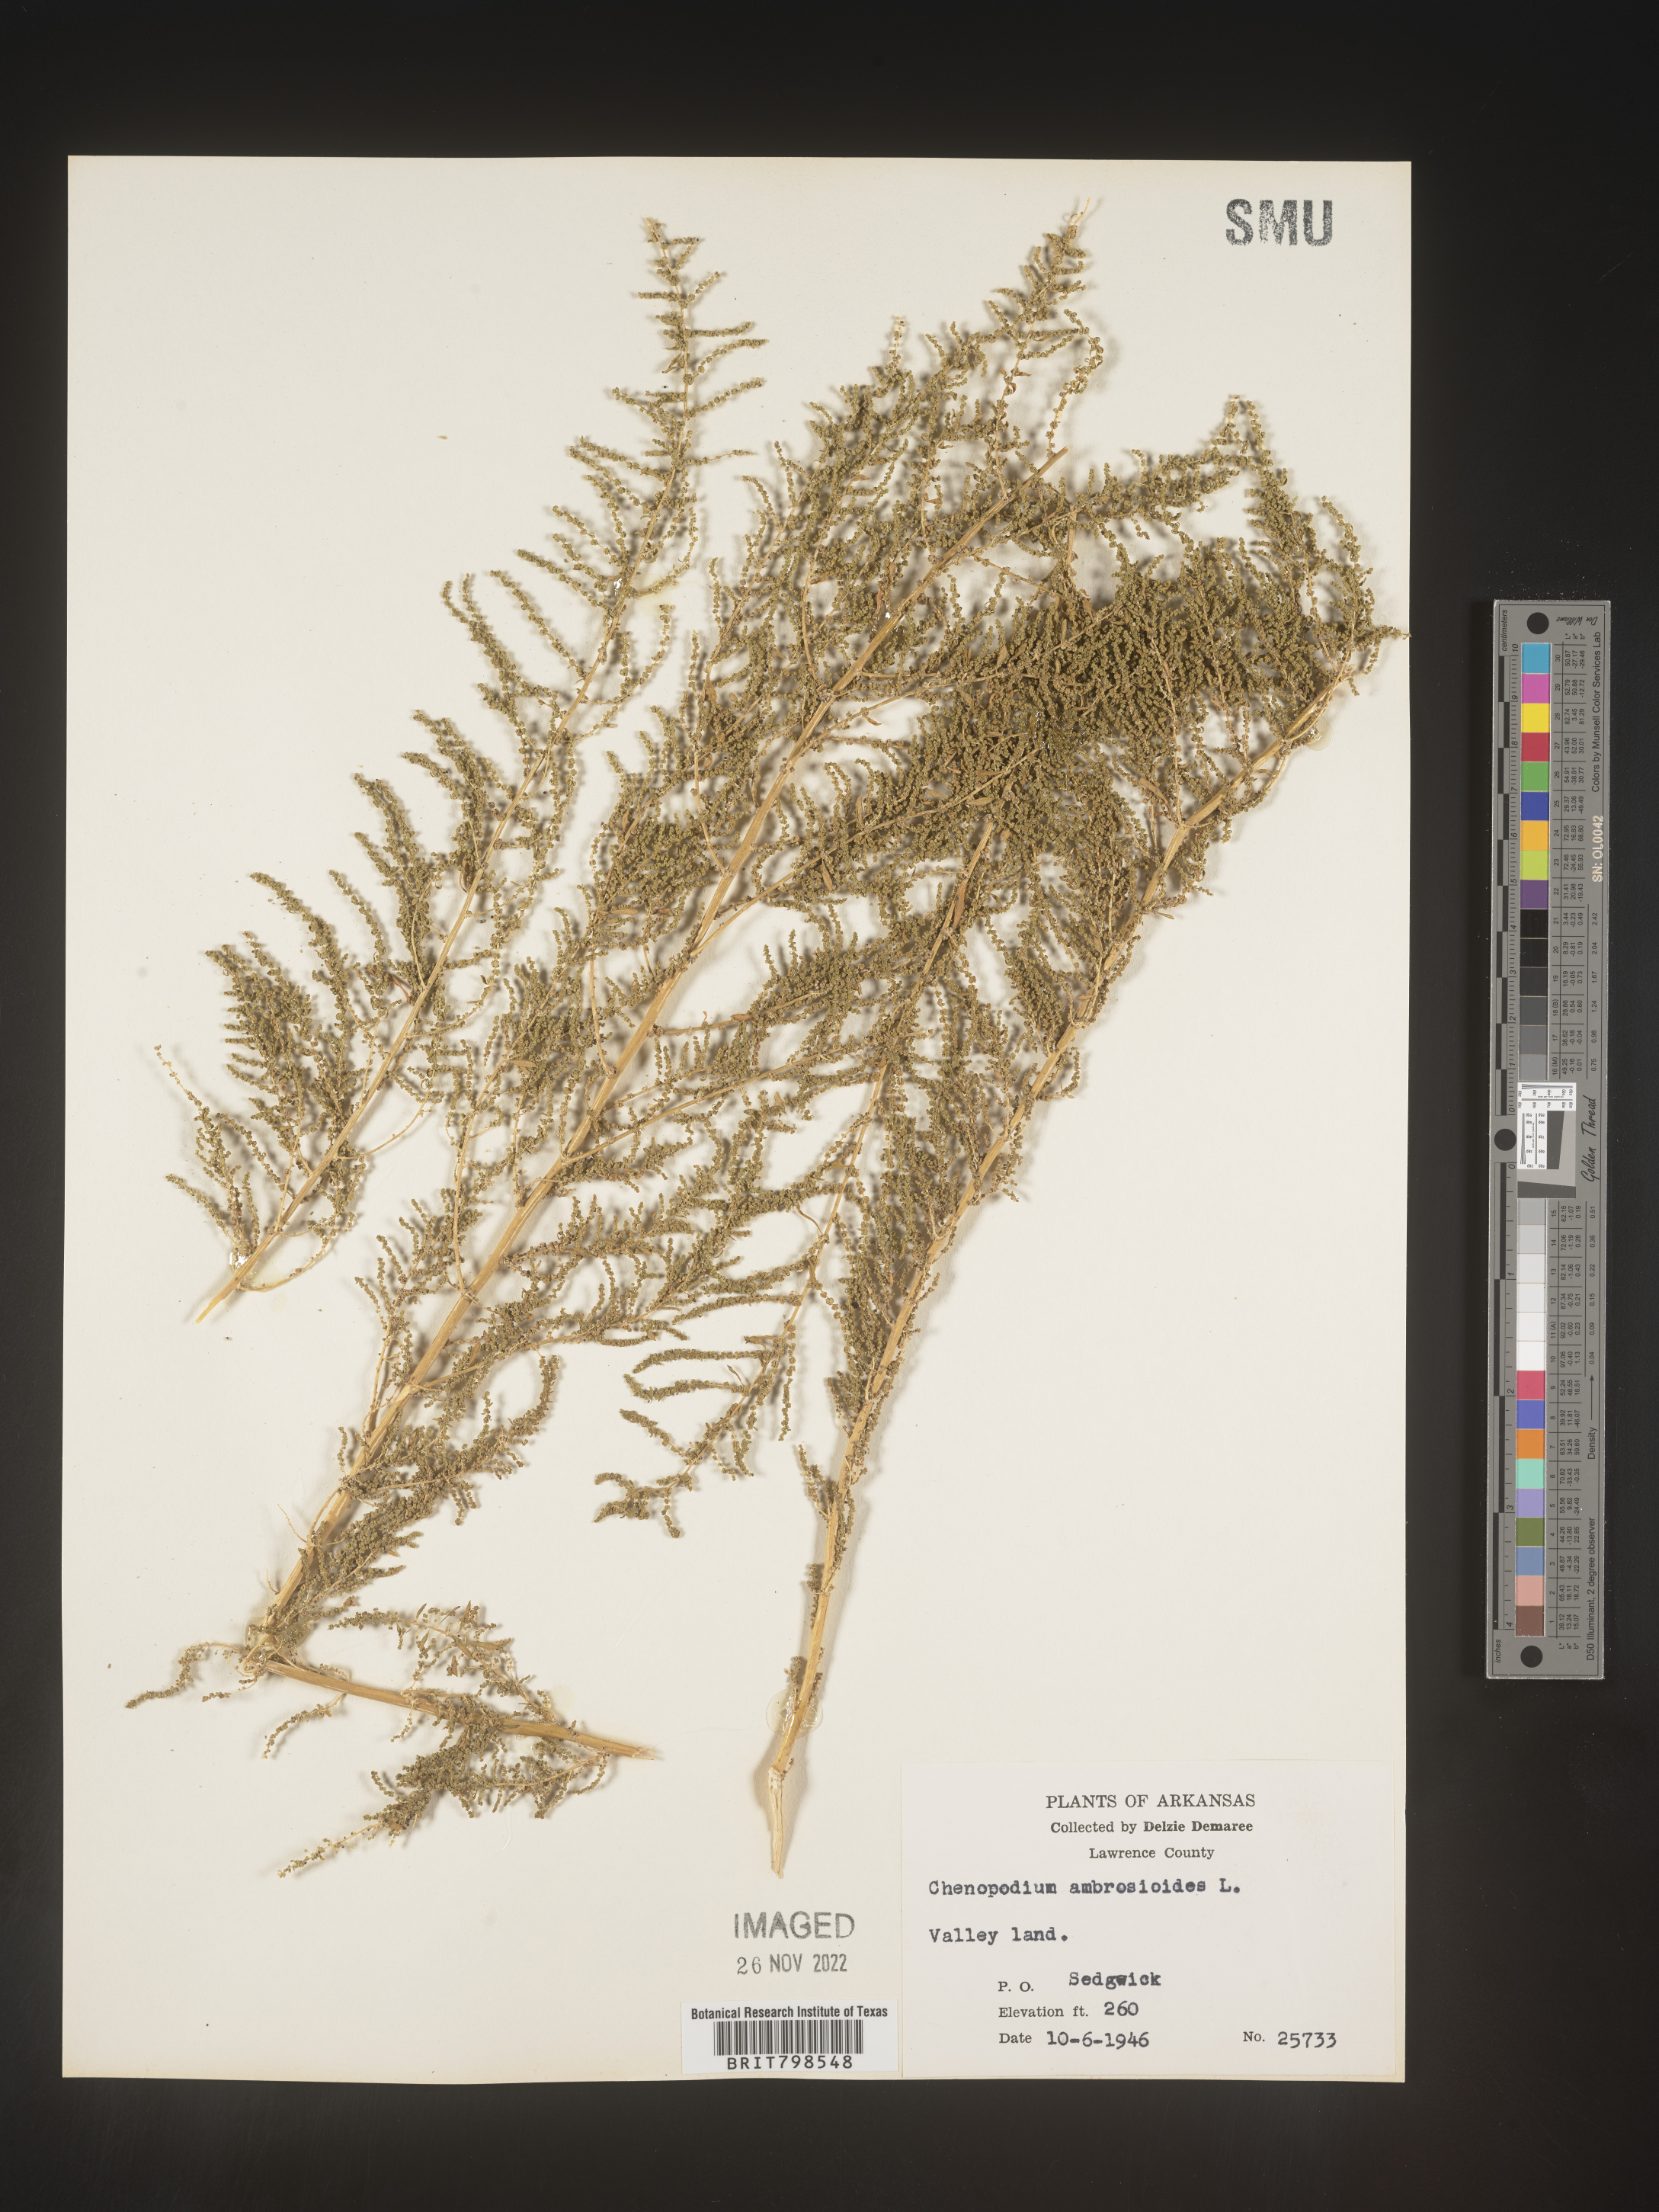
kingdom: Plantae
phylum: Tracheophyta
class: Magnoliopsida
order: Caryophyllales
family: Amaranthaceae
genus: Dysphania
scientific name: Dysphania ambrosioides
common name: Wormseed
